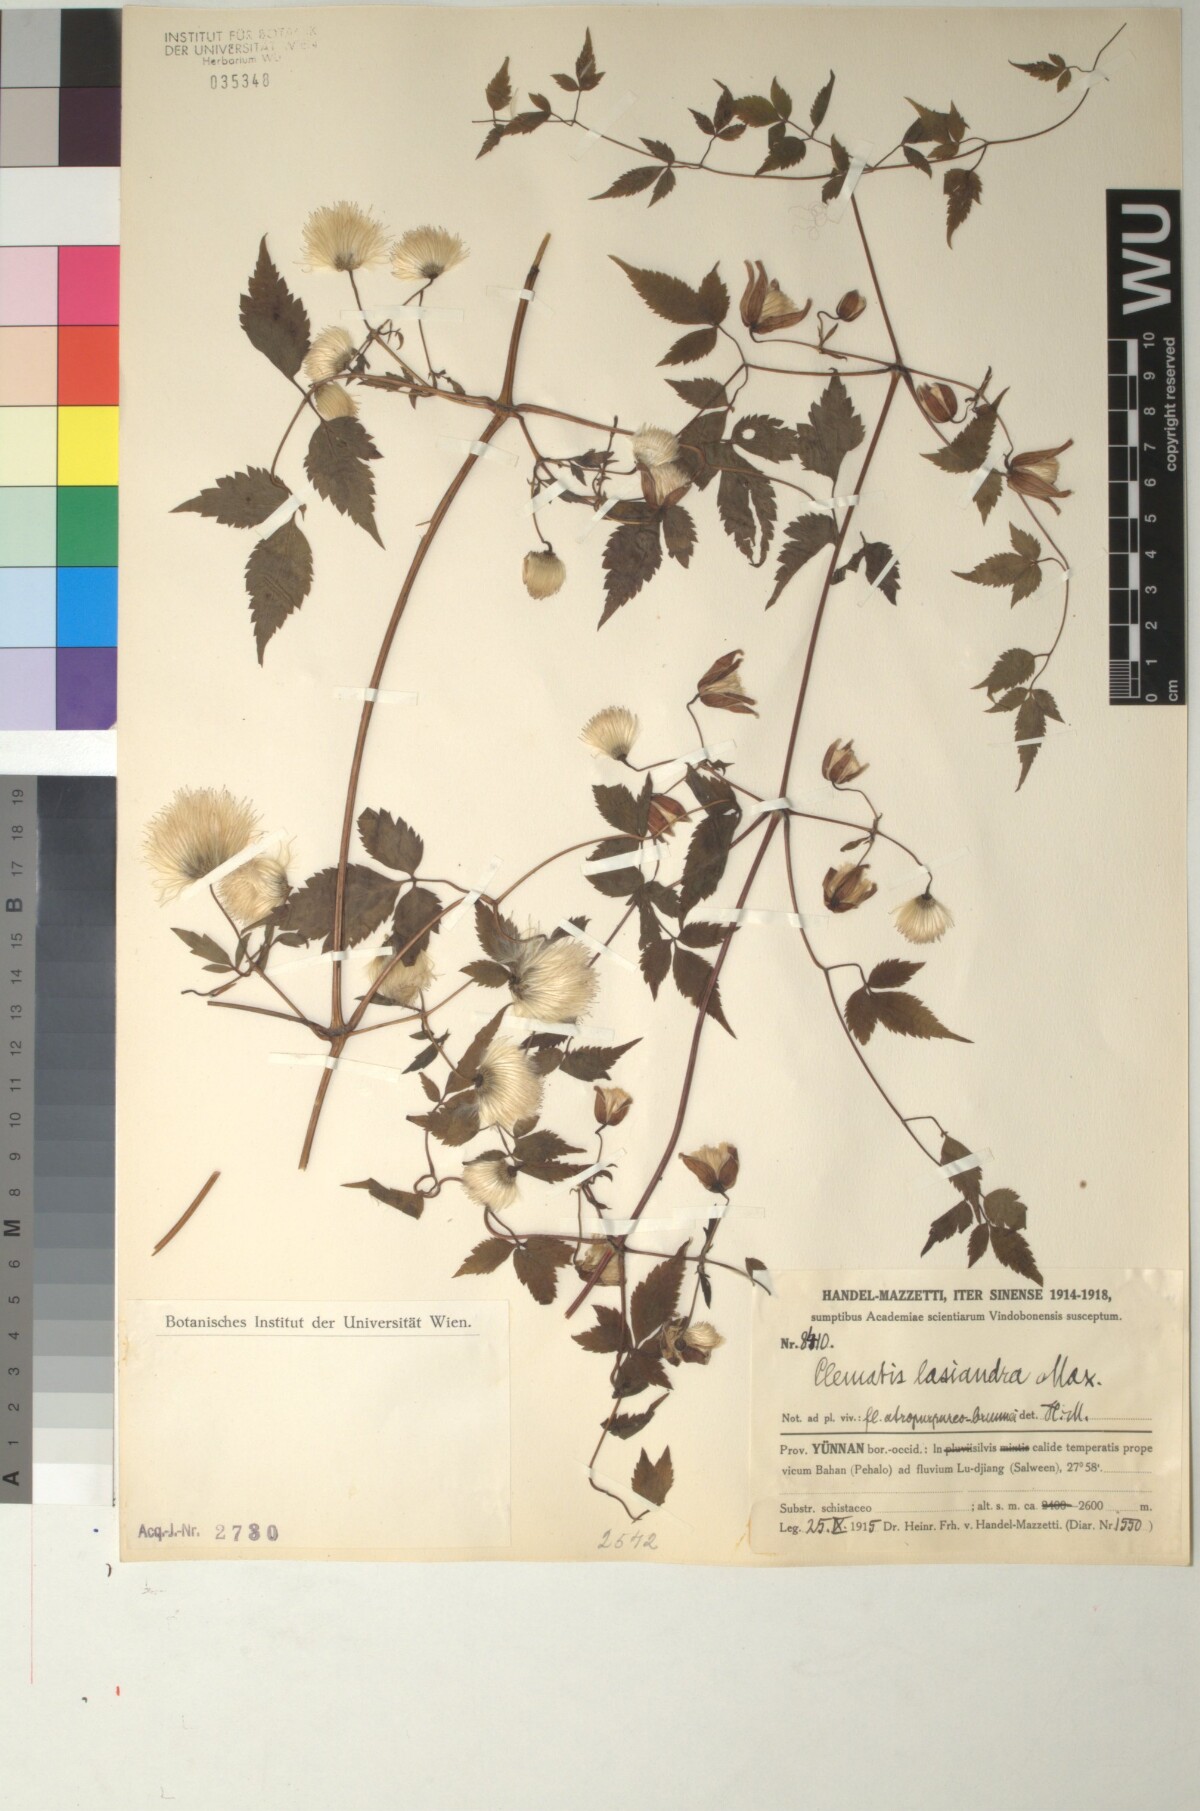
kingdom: Plantae
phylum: Tracheophyta
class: Magnoliopsida
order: Ranunculales
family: Ranunculaceae
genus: Clematis
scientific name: Clematis lasiandra
